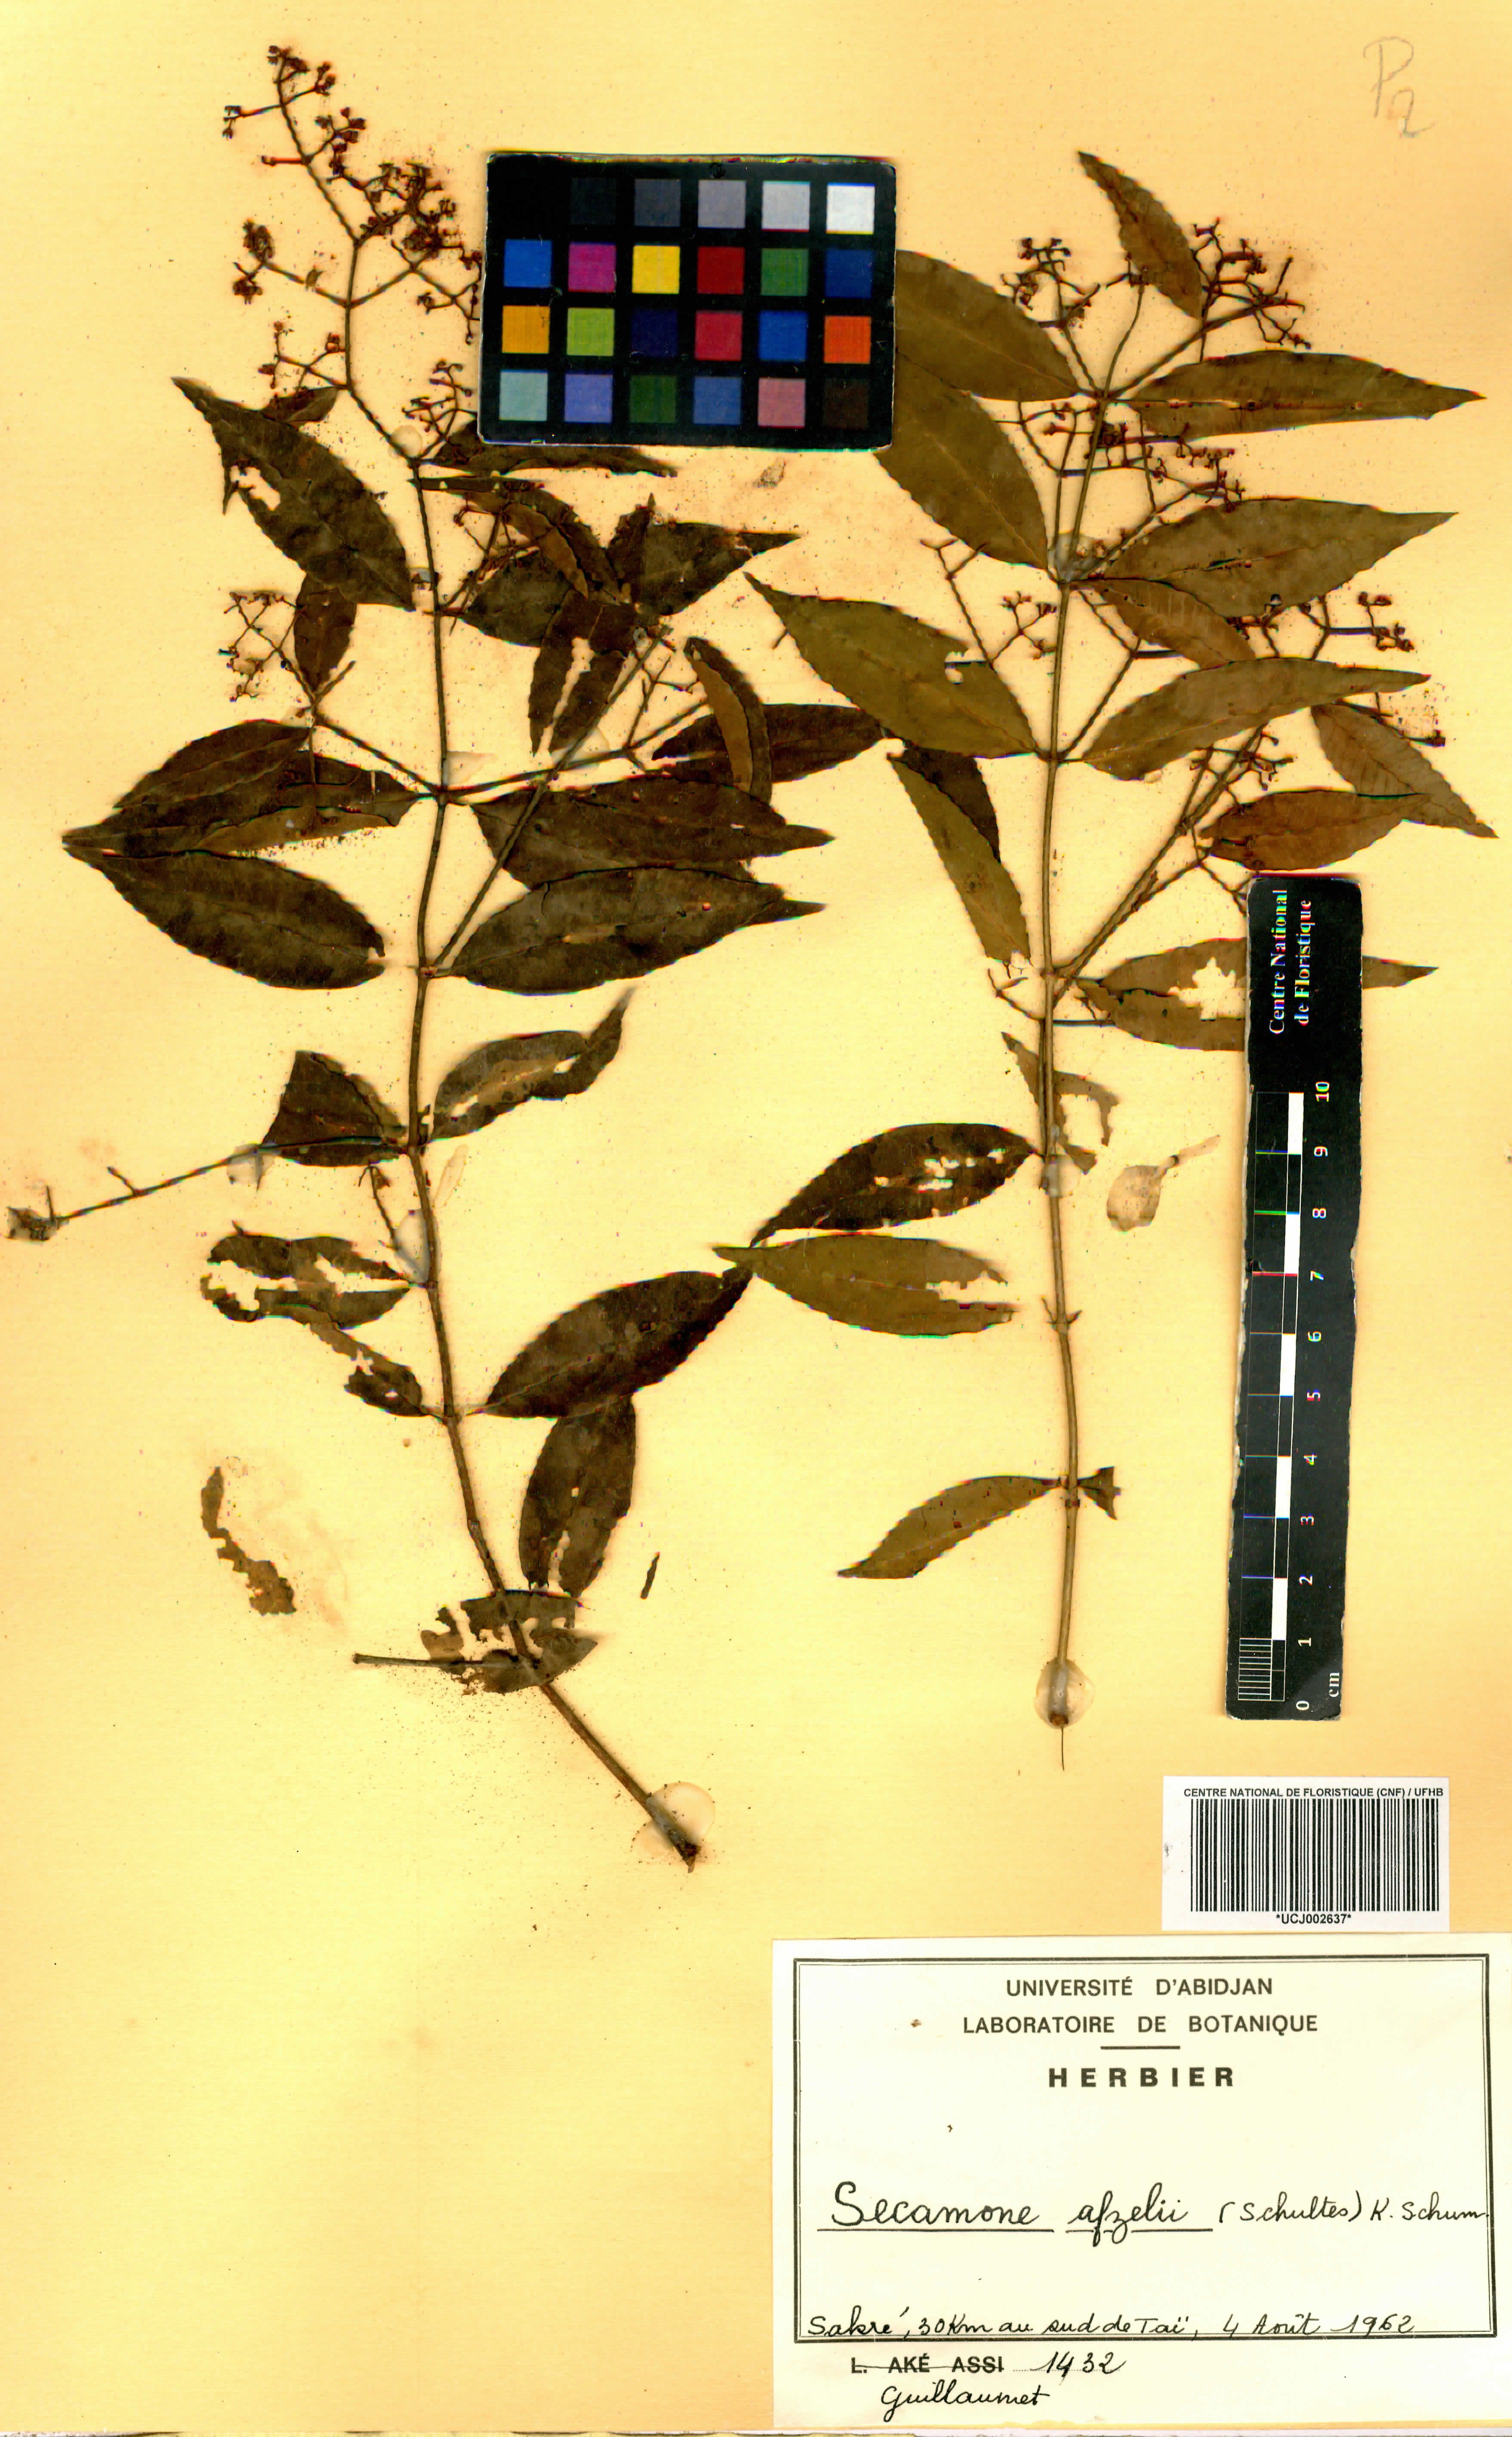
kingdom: Plantae
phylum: Tracheophyta
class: Magnoliopsida
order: Gentianales
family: Apocynaceae
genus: Secamone
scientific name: Secamone afzelii
